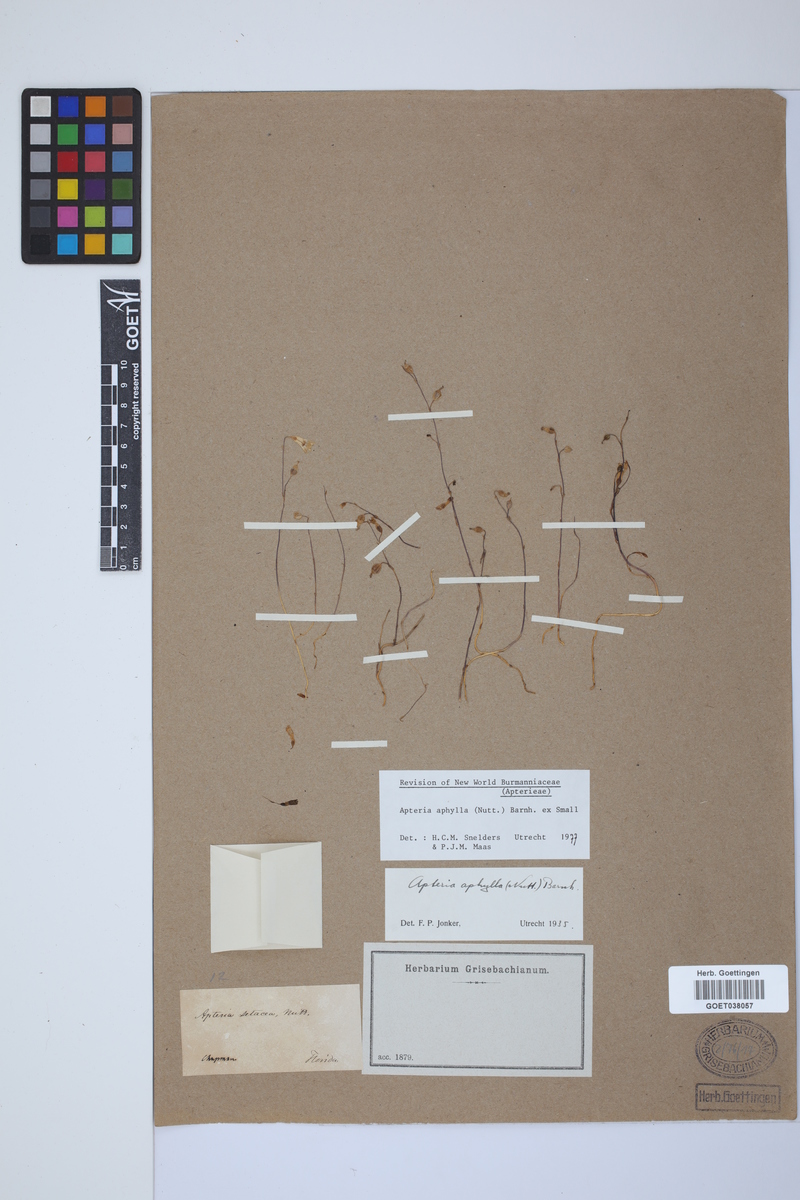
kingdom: Plantae
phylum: Tracheophyta
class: Liliopsida
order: Dioscoreales
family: Burmanniaceae
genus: Apteria
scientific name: Apteria aphylla
